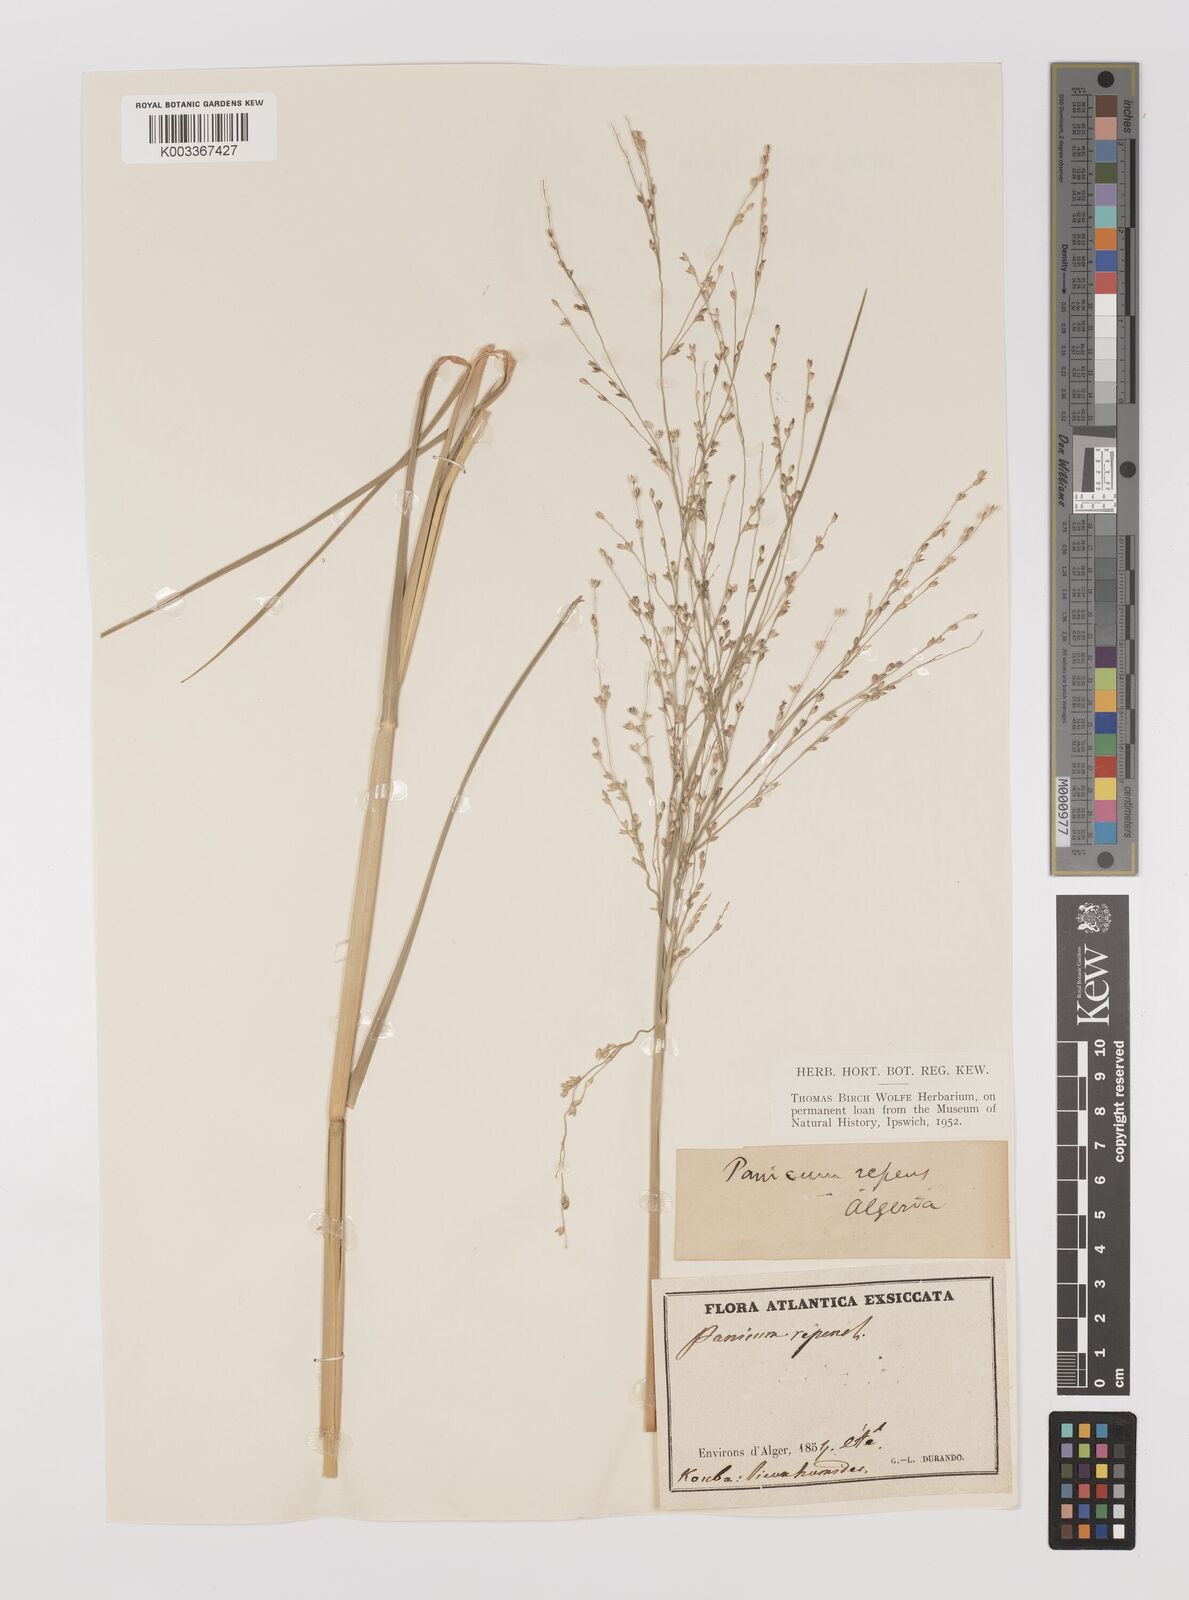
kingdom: Plantae
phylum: Tracheophyta
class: Liliopsida
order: Poales
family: Poaceae
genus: Panicum
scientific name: Panicum repens
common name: Torpedo grass
